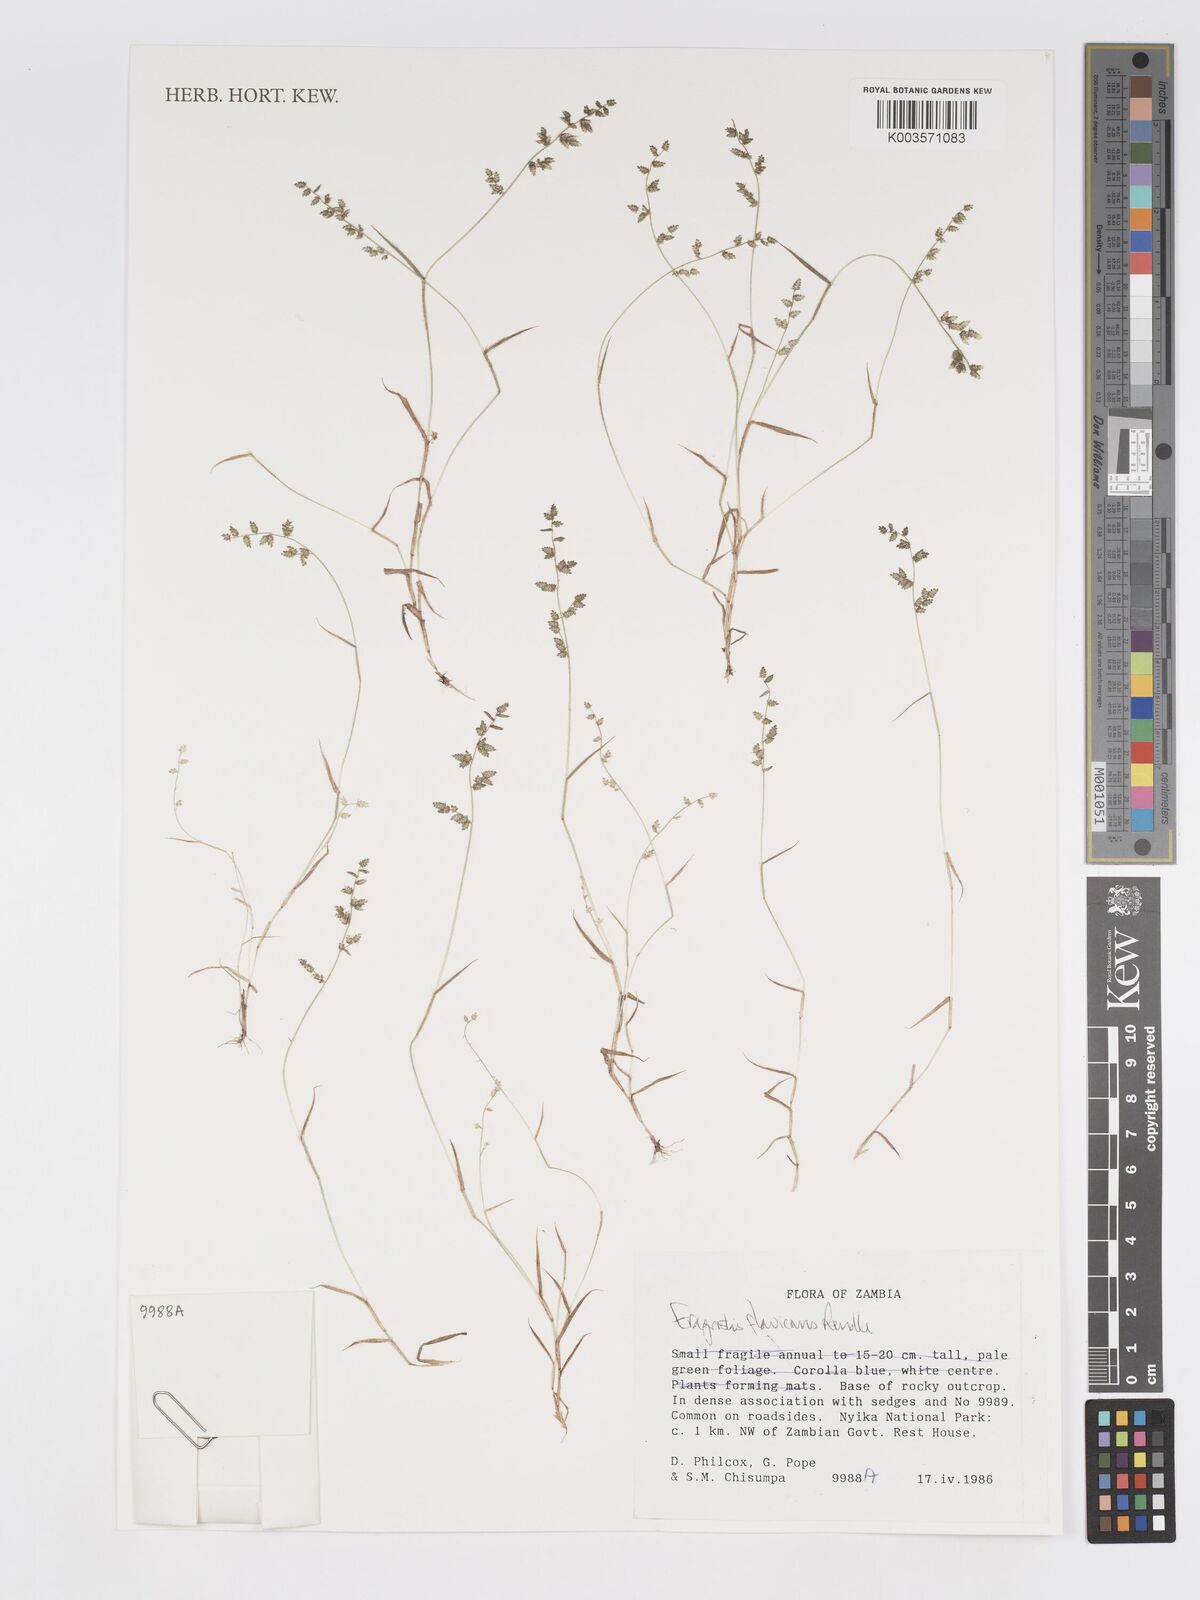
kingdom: Plantae
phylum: Tracheophyta
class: Liliopsida
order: Poales
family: Poaceae
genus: Eragrostis
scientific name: Eragrostis flavicans
